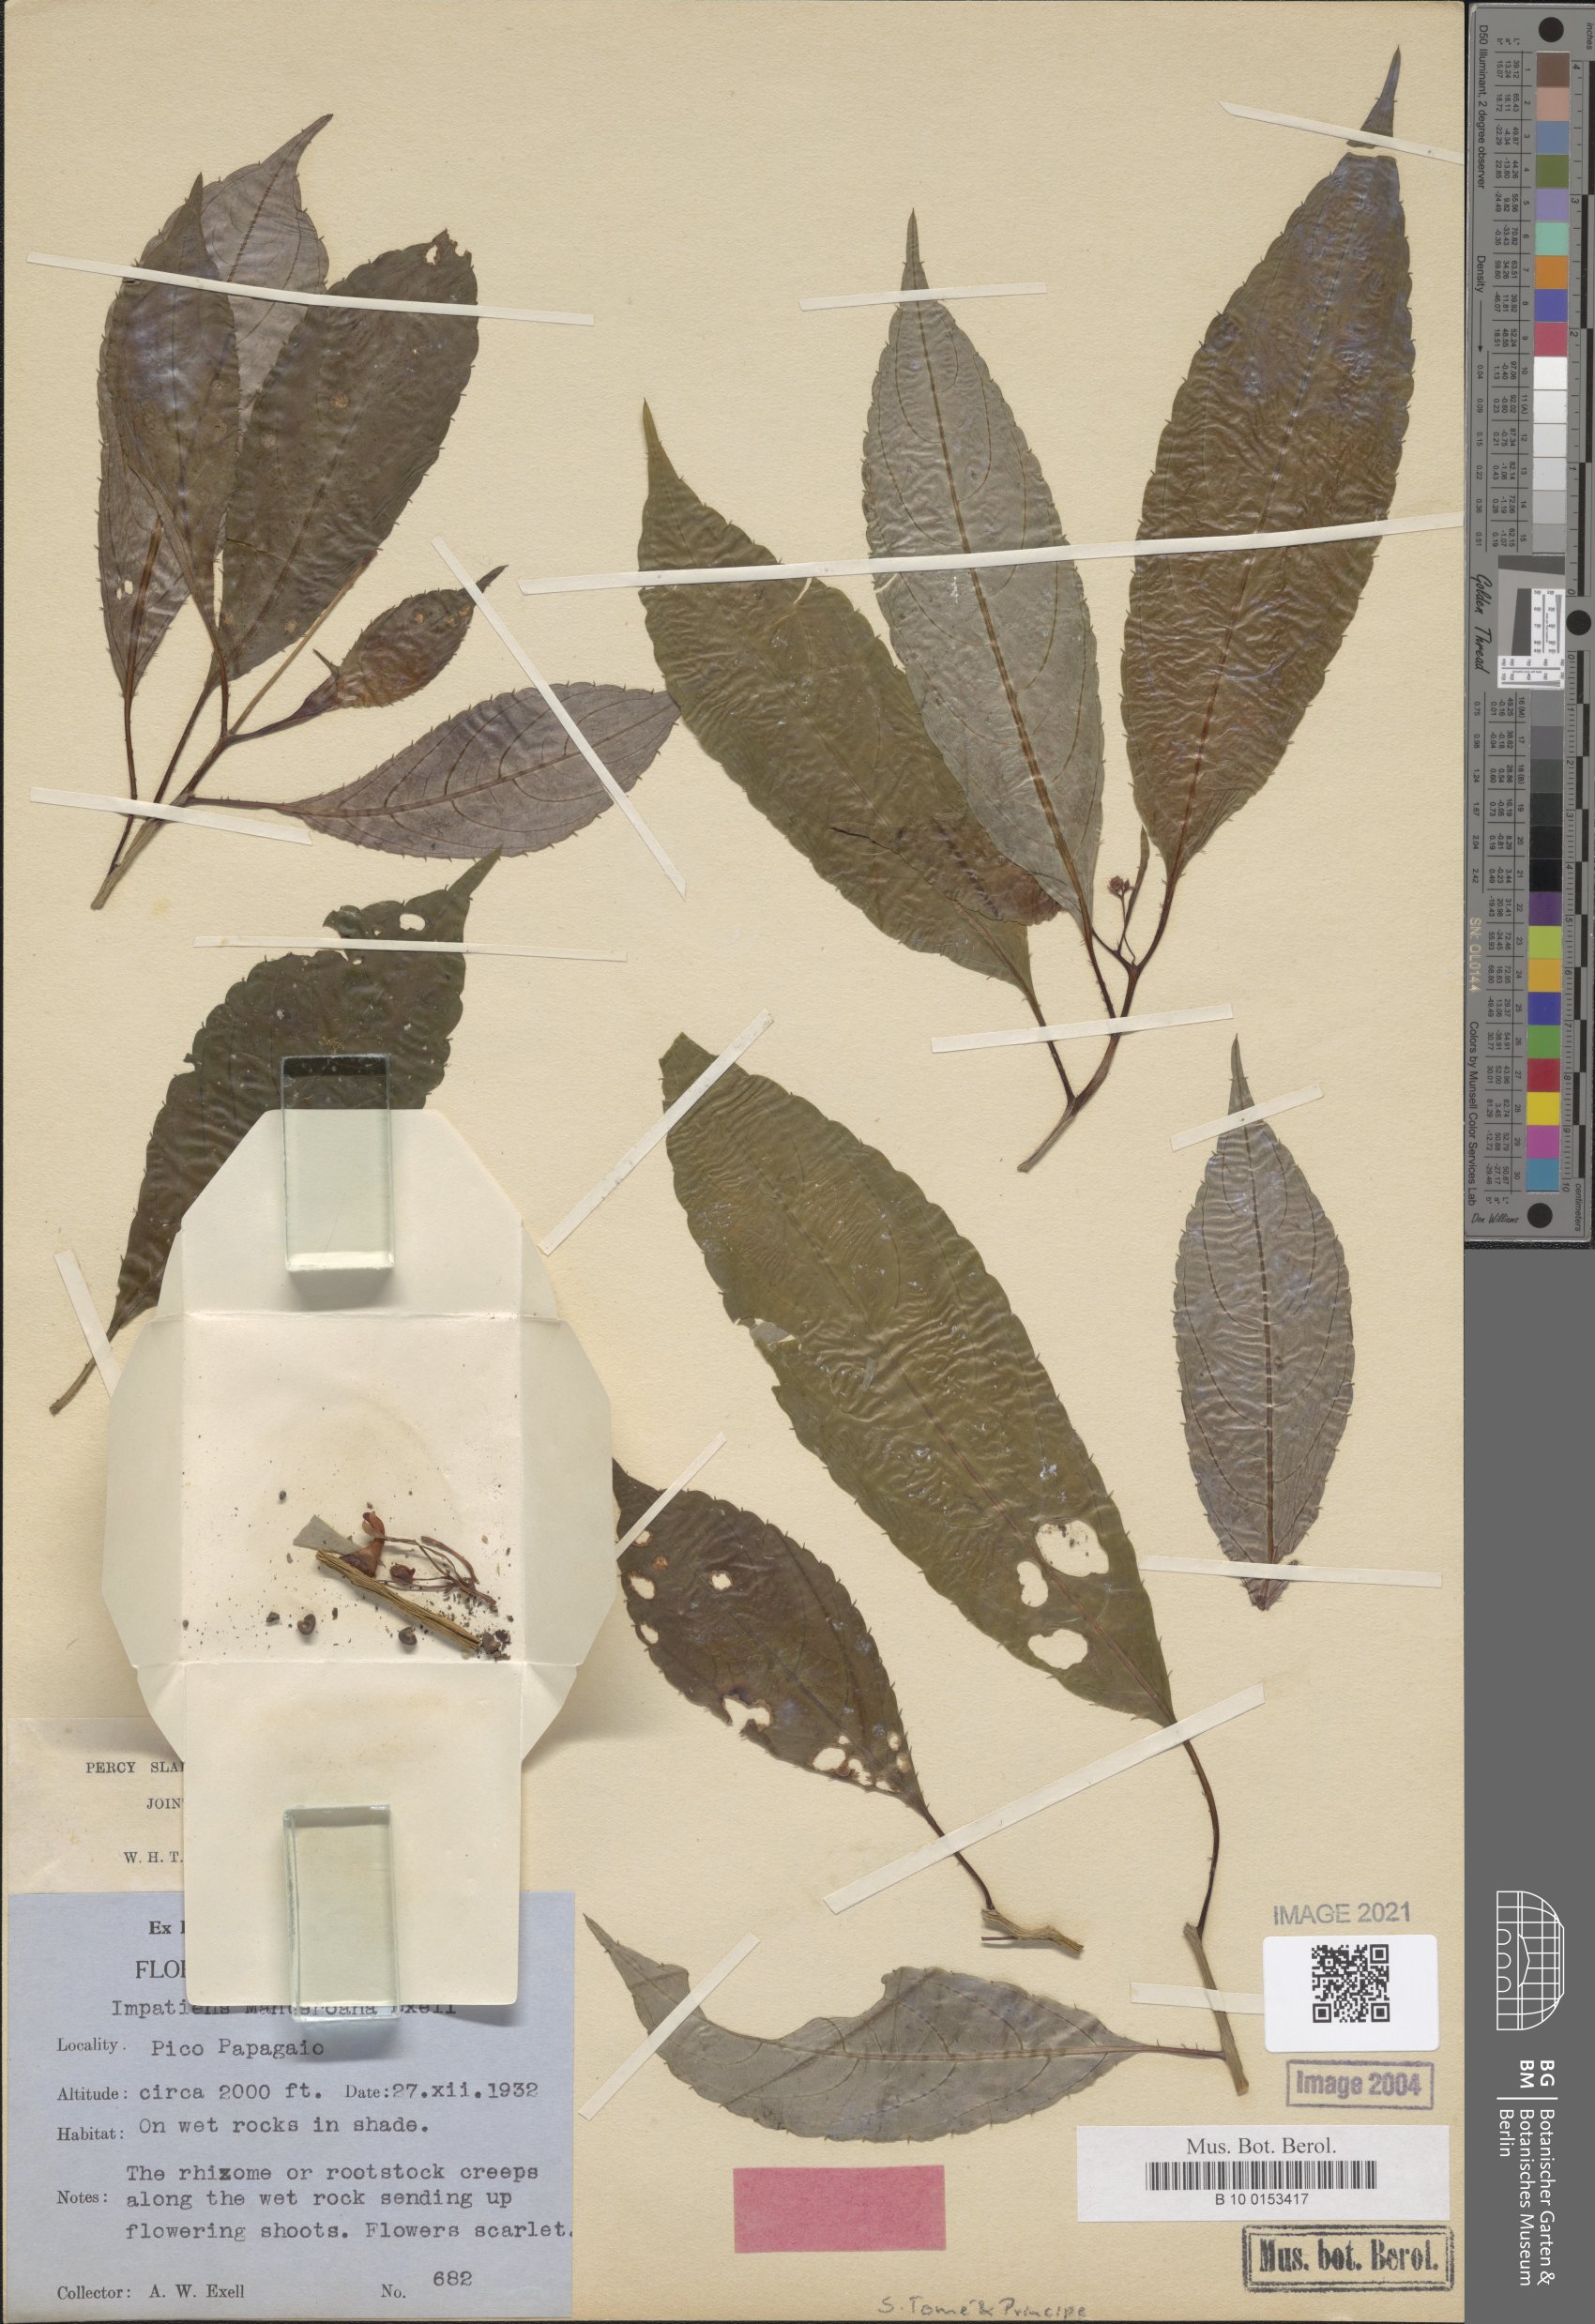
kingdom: Plantae
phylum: Tracheophyta
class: Magnoliopsida
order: Ericales
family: Balsaminaceae
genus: Impatiens
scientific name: Impatiens manteroana
